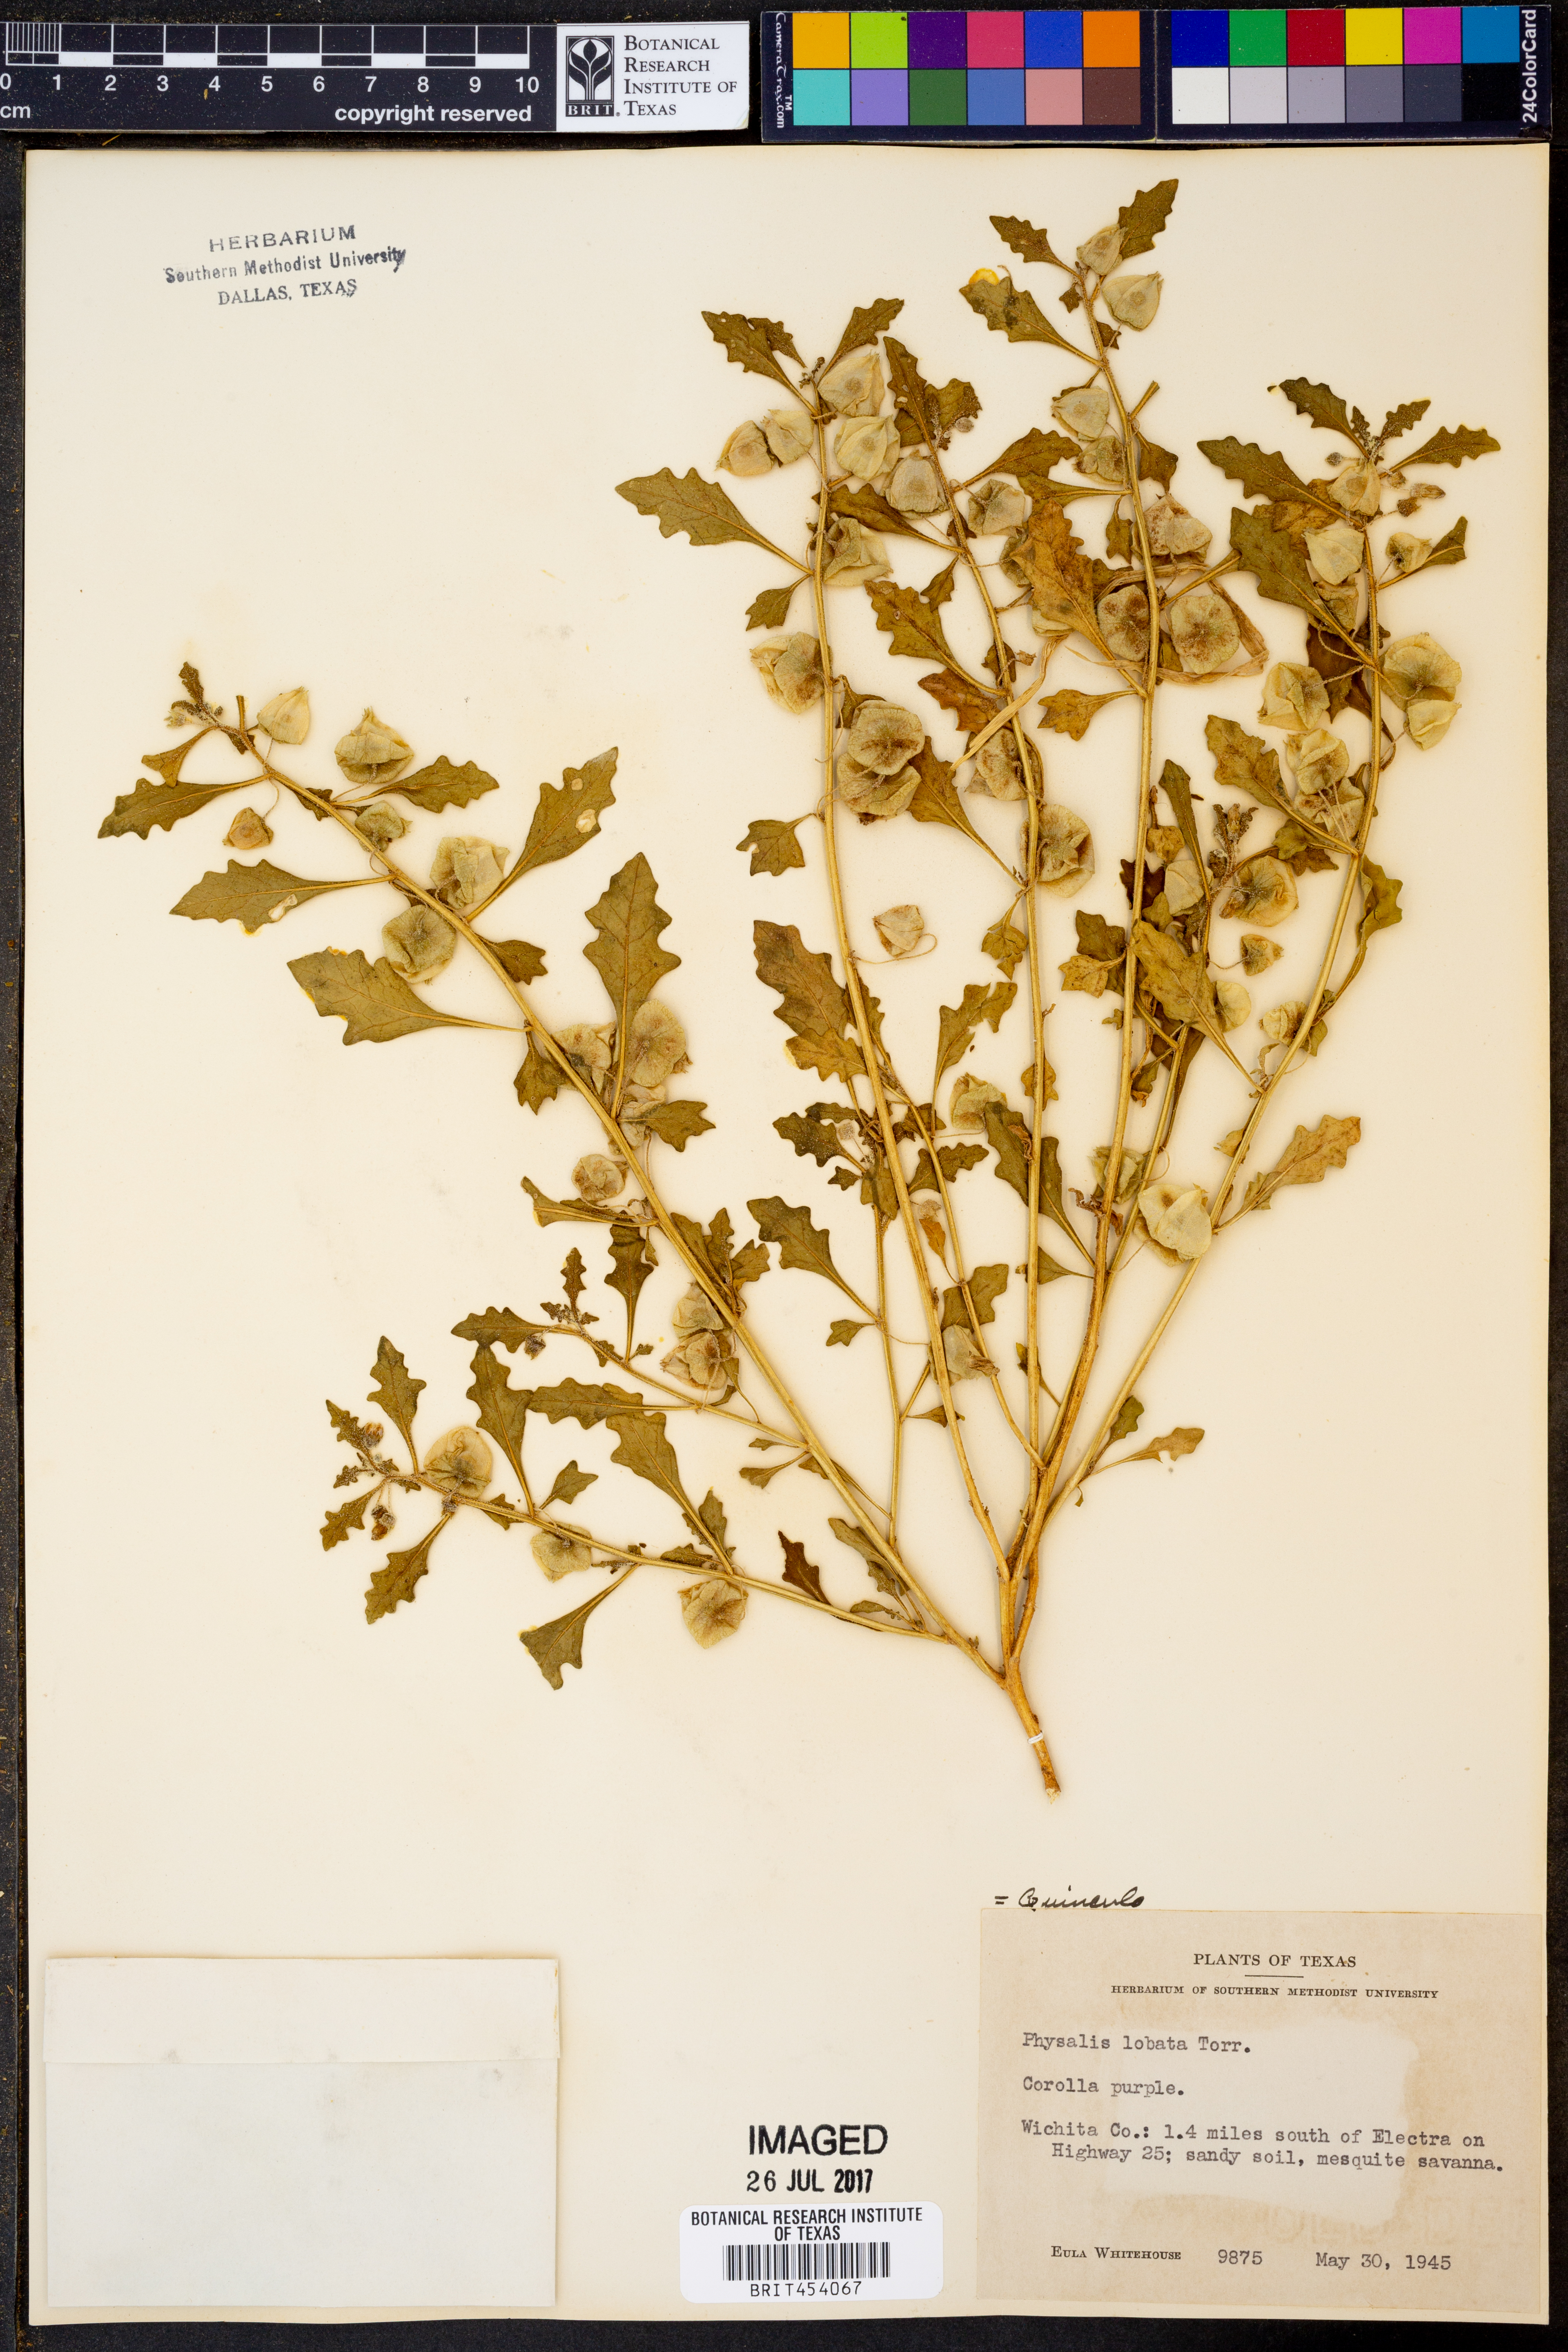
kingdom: Plantae
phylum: Tracheophyta
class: Magnoliopsida
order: Solanales
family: Solanaceae
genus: Quincula
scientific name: Quincula lobata
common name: Purple-ground-cherry
